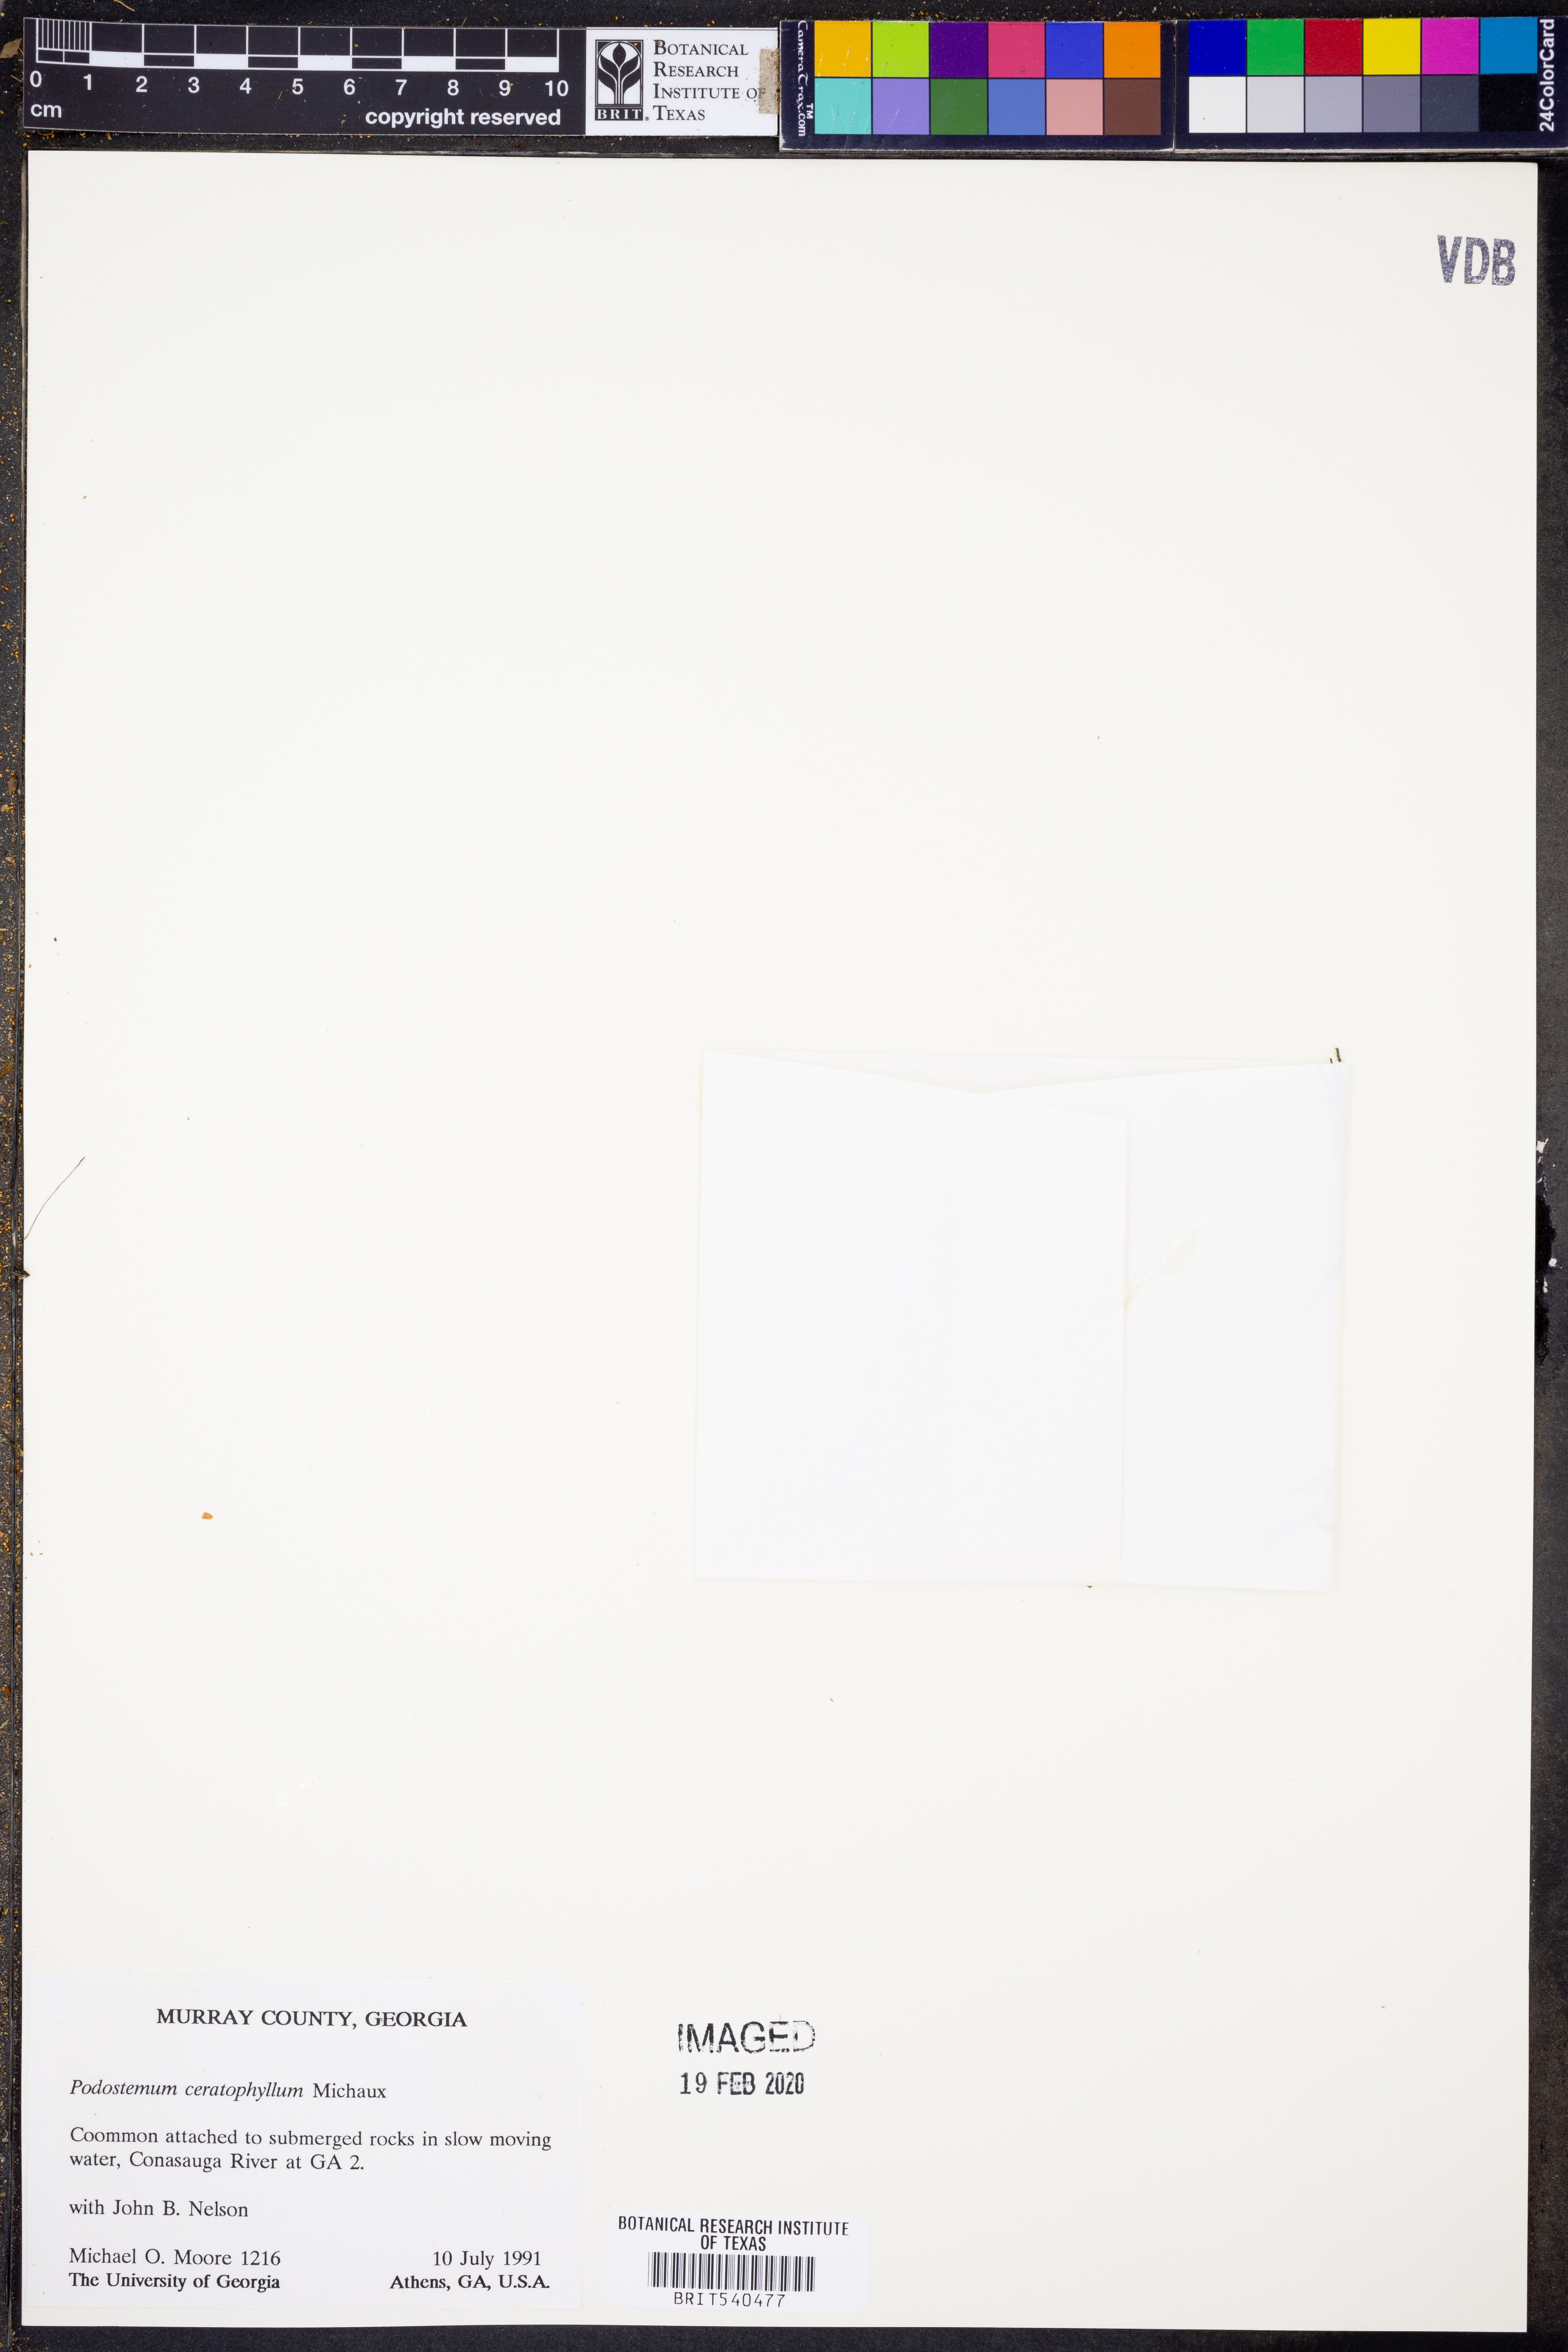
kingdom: Plantae
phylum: Tracheophyta
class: Magnoliopsida
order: Malpighiales
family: Podostemaceae
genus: Podostemum
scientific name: Podostemum ceratophyllum
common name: Horn-leaved riverweed
